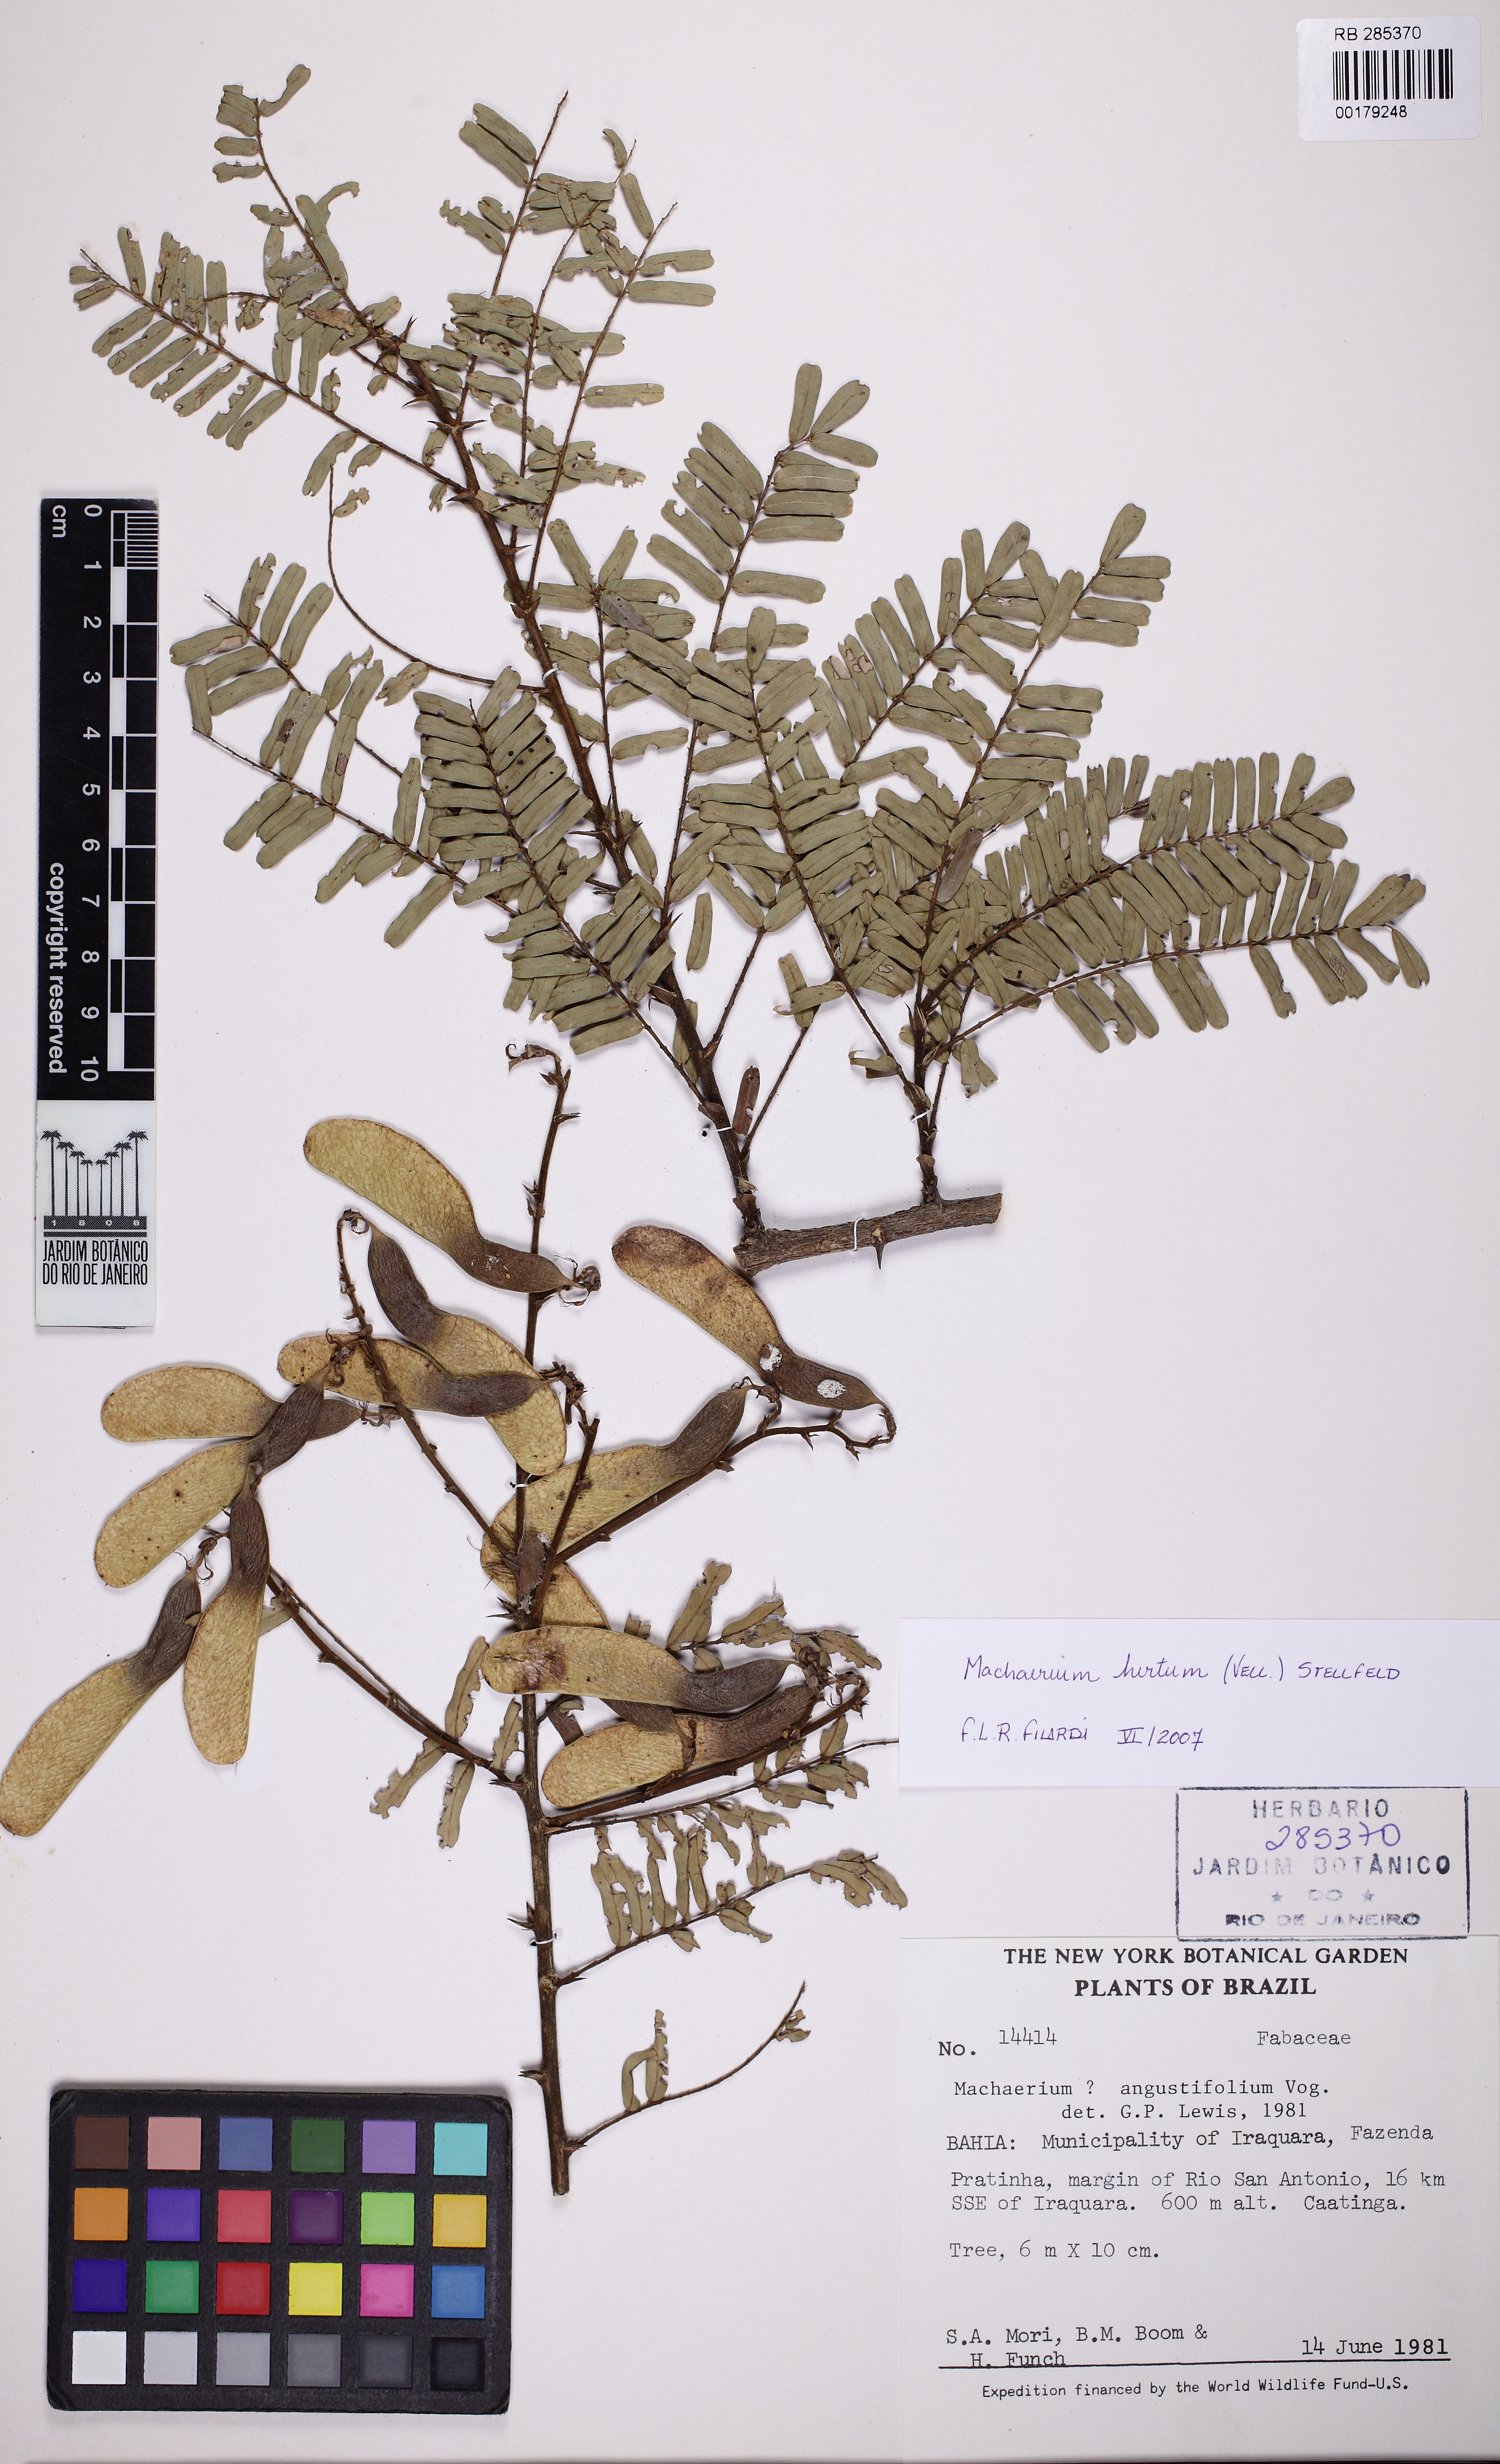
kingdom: Plantae
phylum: Tracheophyta
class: Magnoliopsida
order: Fabales
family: Fabaceae
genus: Machaerium
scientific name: Machaerium hirtum
